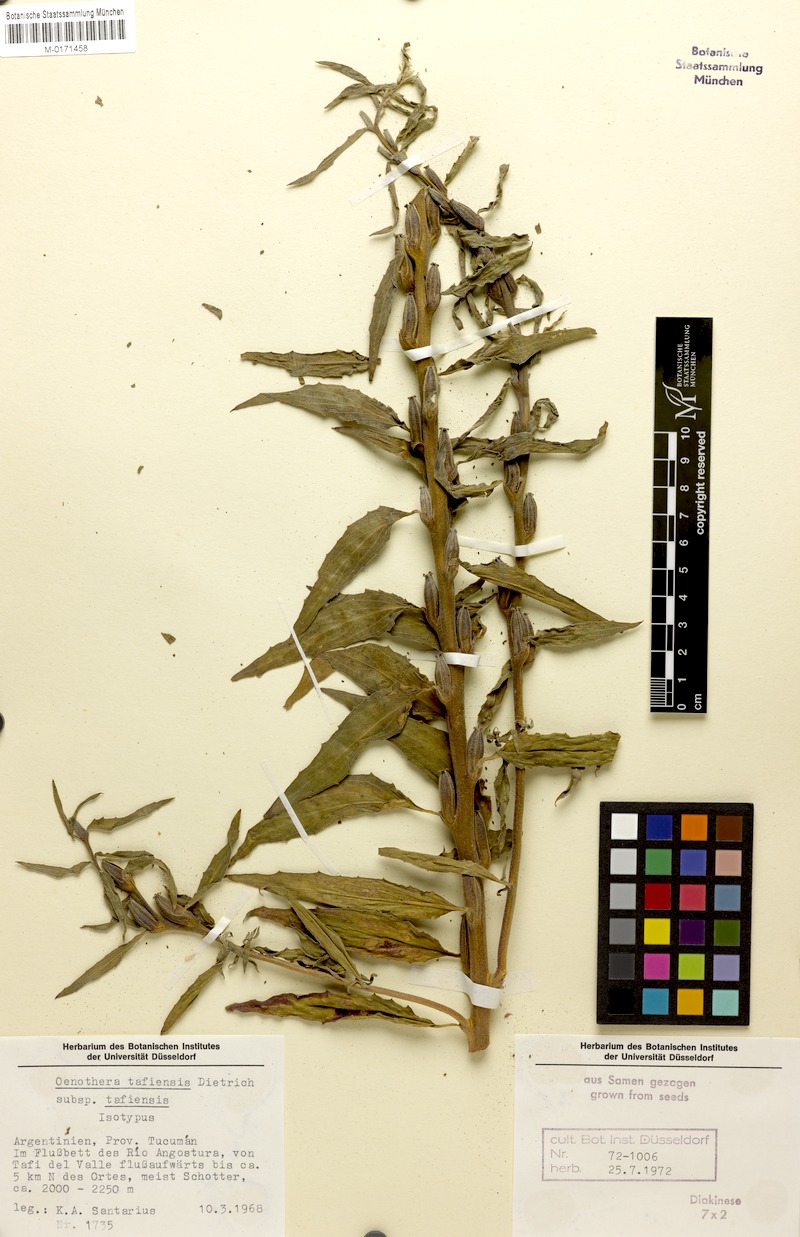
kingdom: Plantae
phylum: Tracheophyta
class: Magnoliopsida
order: Myrtales
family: Onagraceae
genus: Oenothera
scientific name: Oenothera tafiensis
